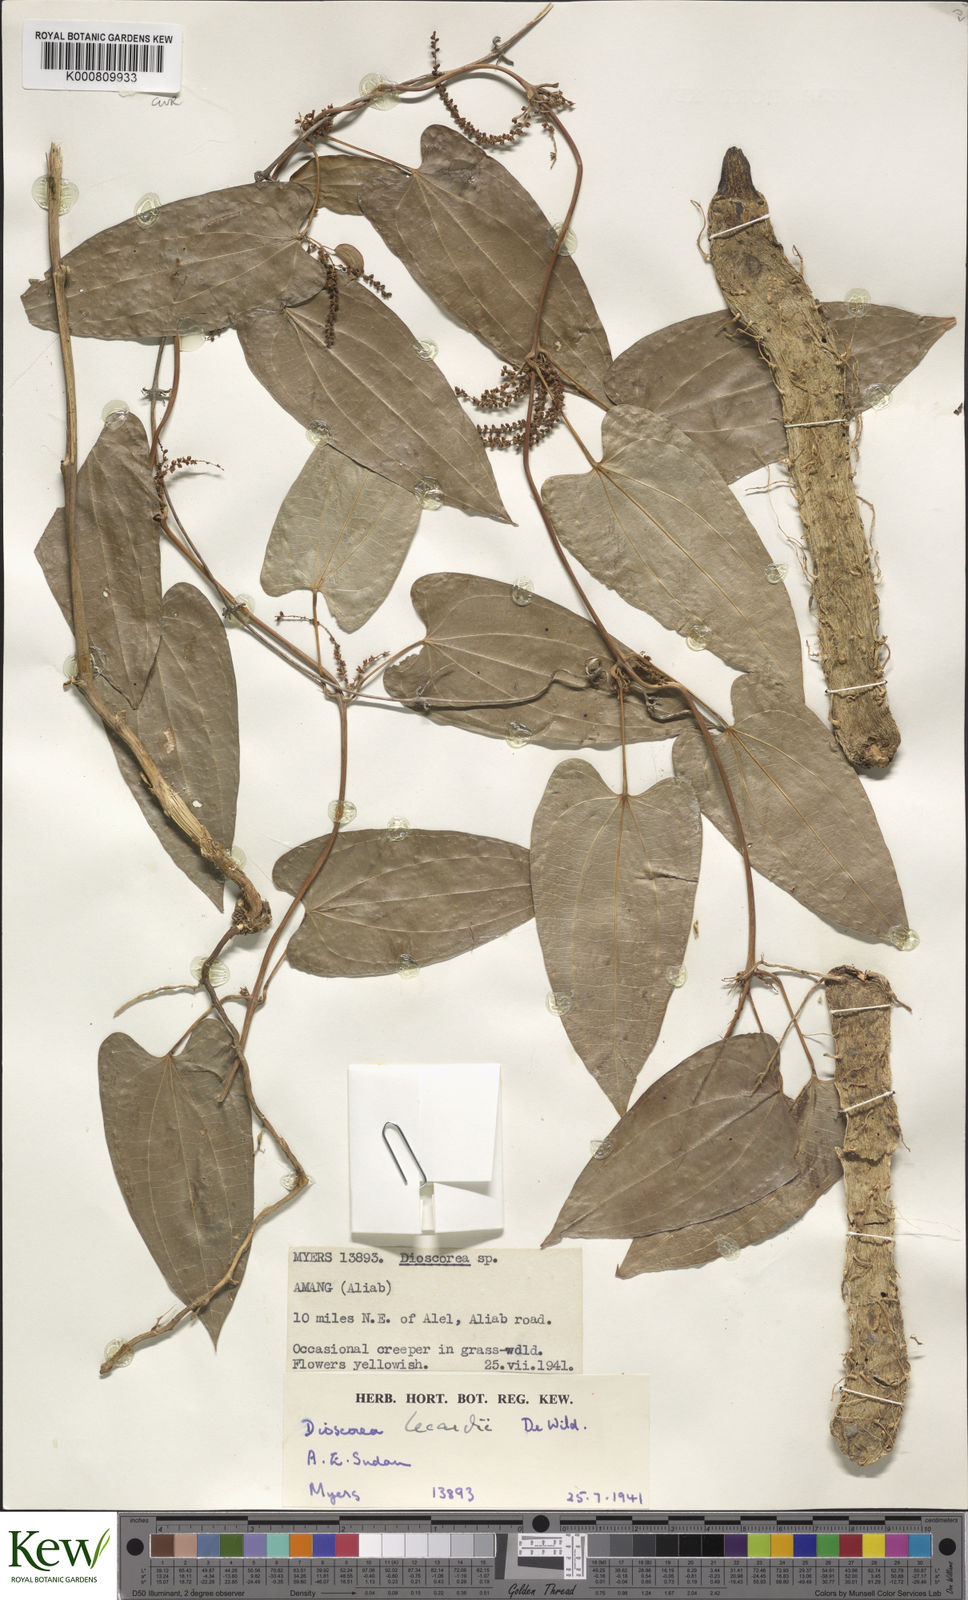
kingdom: Plantae
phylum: Tracheophyta
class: Liliopsida
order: Dioscoreales
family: Dioscoreaceae
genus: Dioscorea
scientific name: Dioscorea sagittifolia
